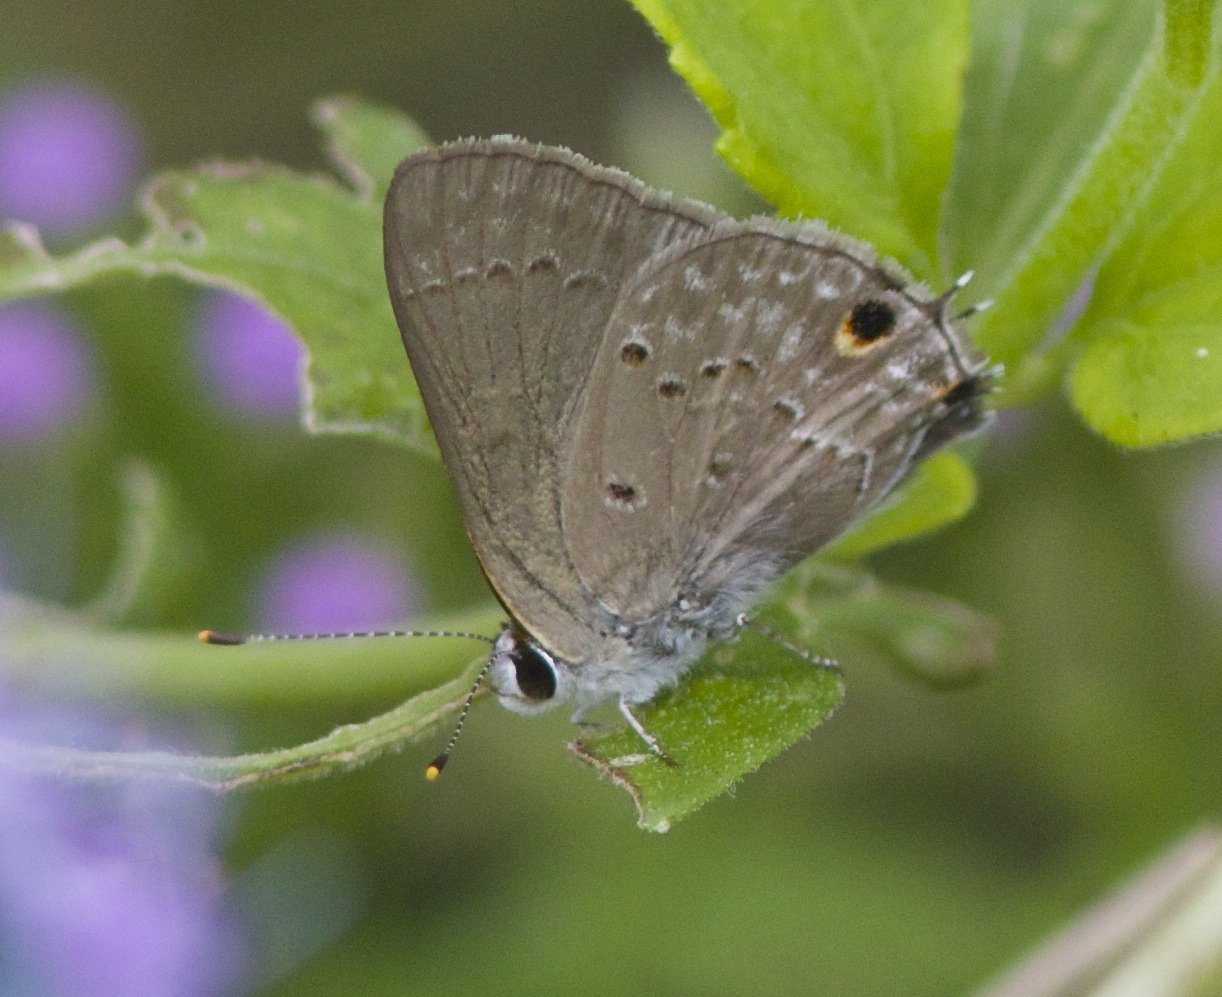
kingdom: Animalia
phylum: Arthropoda
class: Insecta
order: Lepidoptera
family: Lycaenidae
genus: Callicista
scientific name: Callicista columella
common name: Mallow Scrub-Hairstreak
